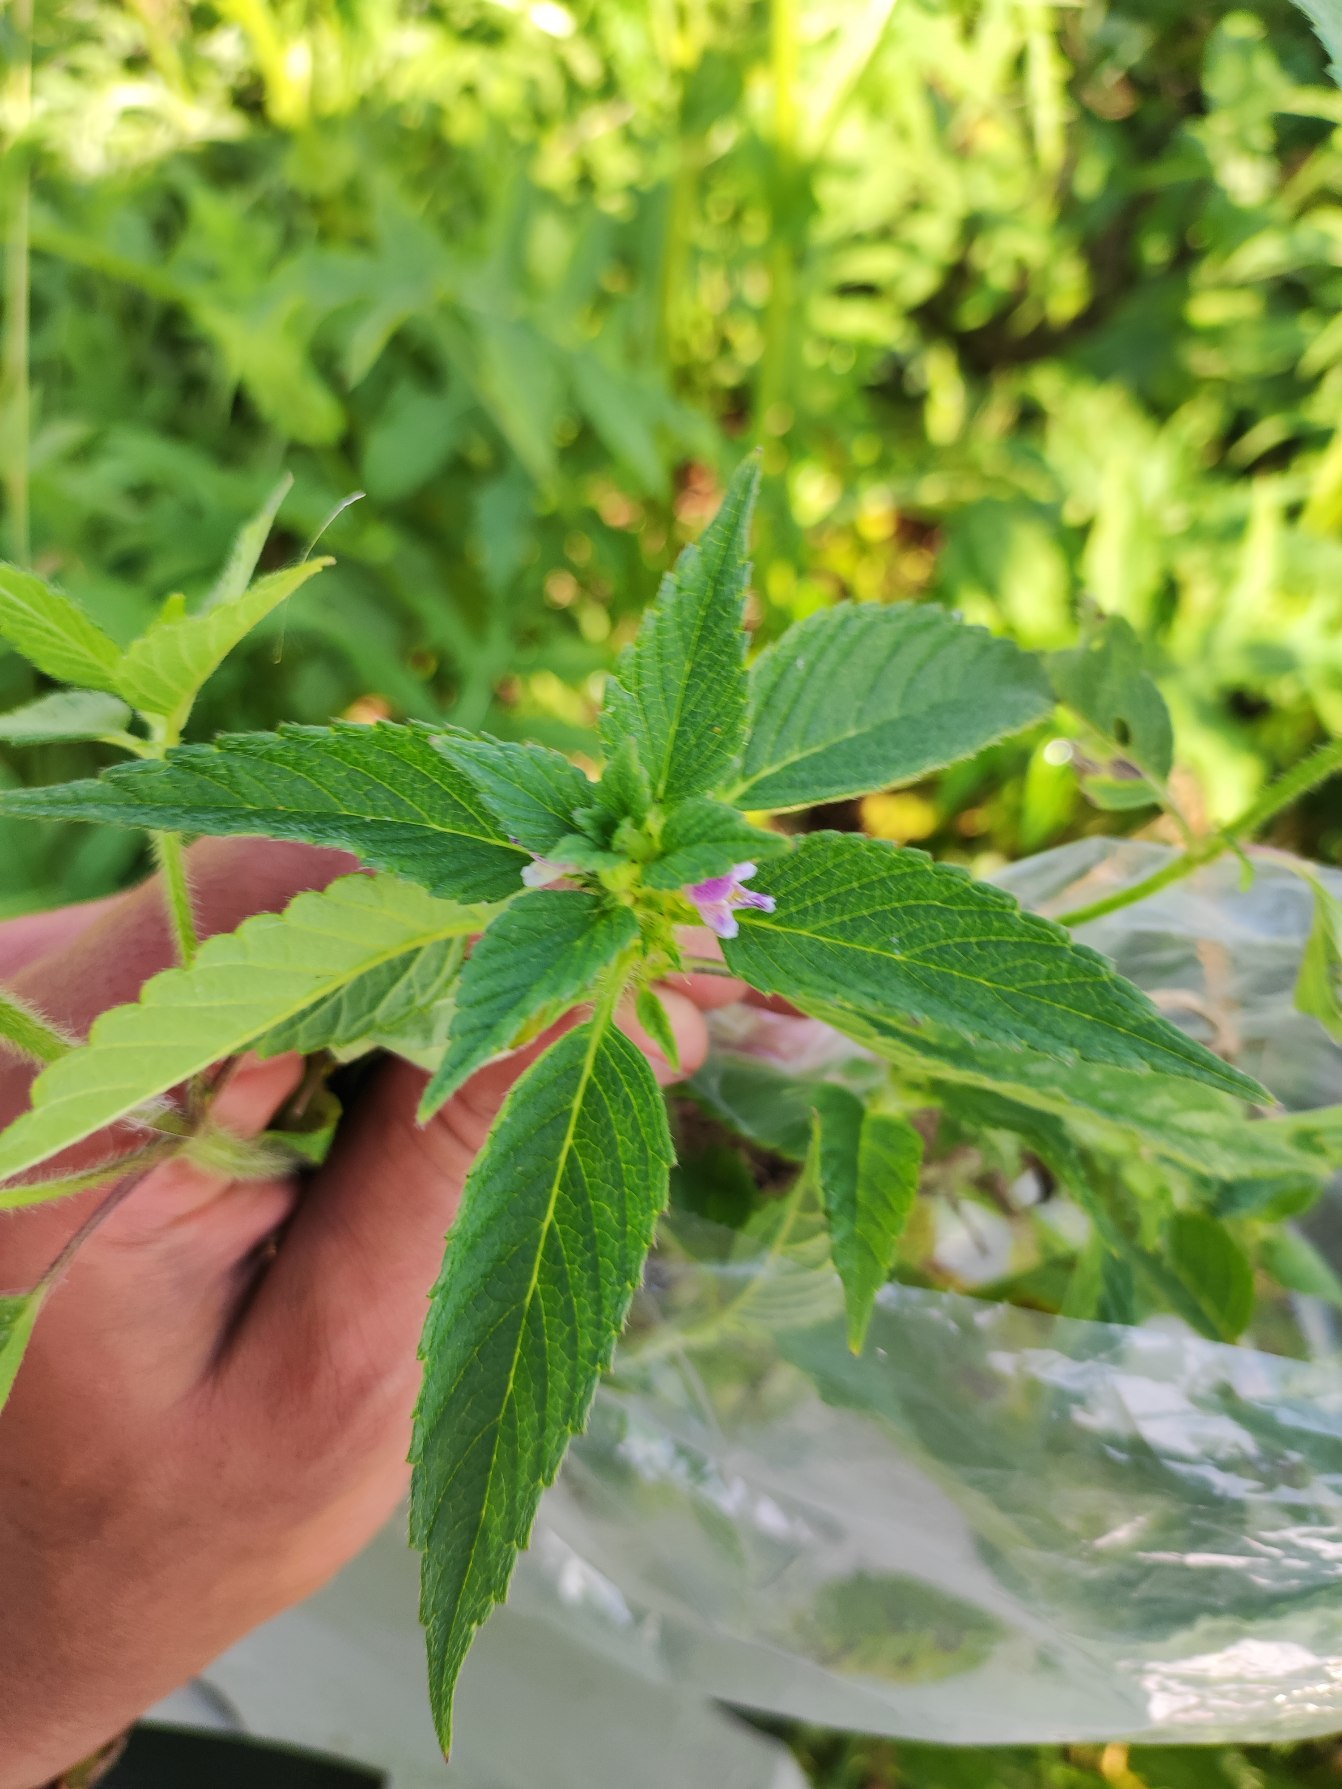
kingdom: Plantae
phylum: Tracheophyta
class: Magnoliopsida
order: Lamiales
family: Lamiaceae
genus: Galeopsis
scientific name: Galeopsis bifida
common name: Skov-hanekro
